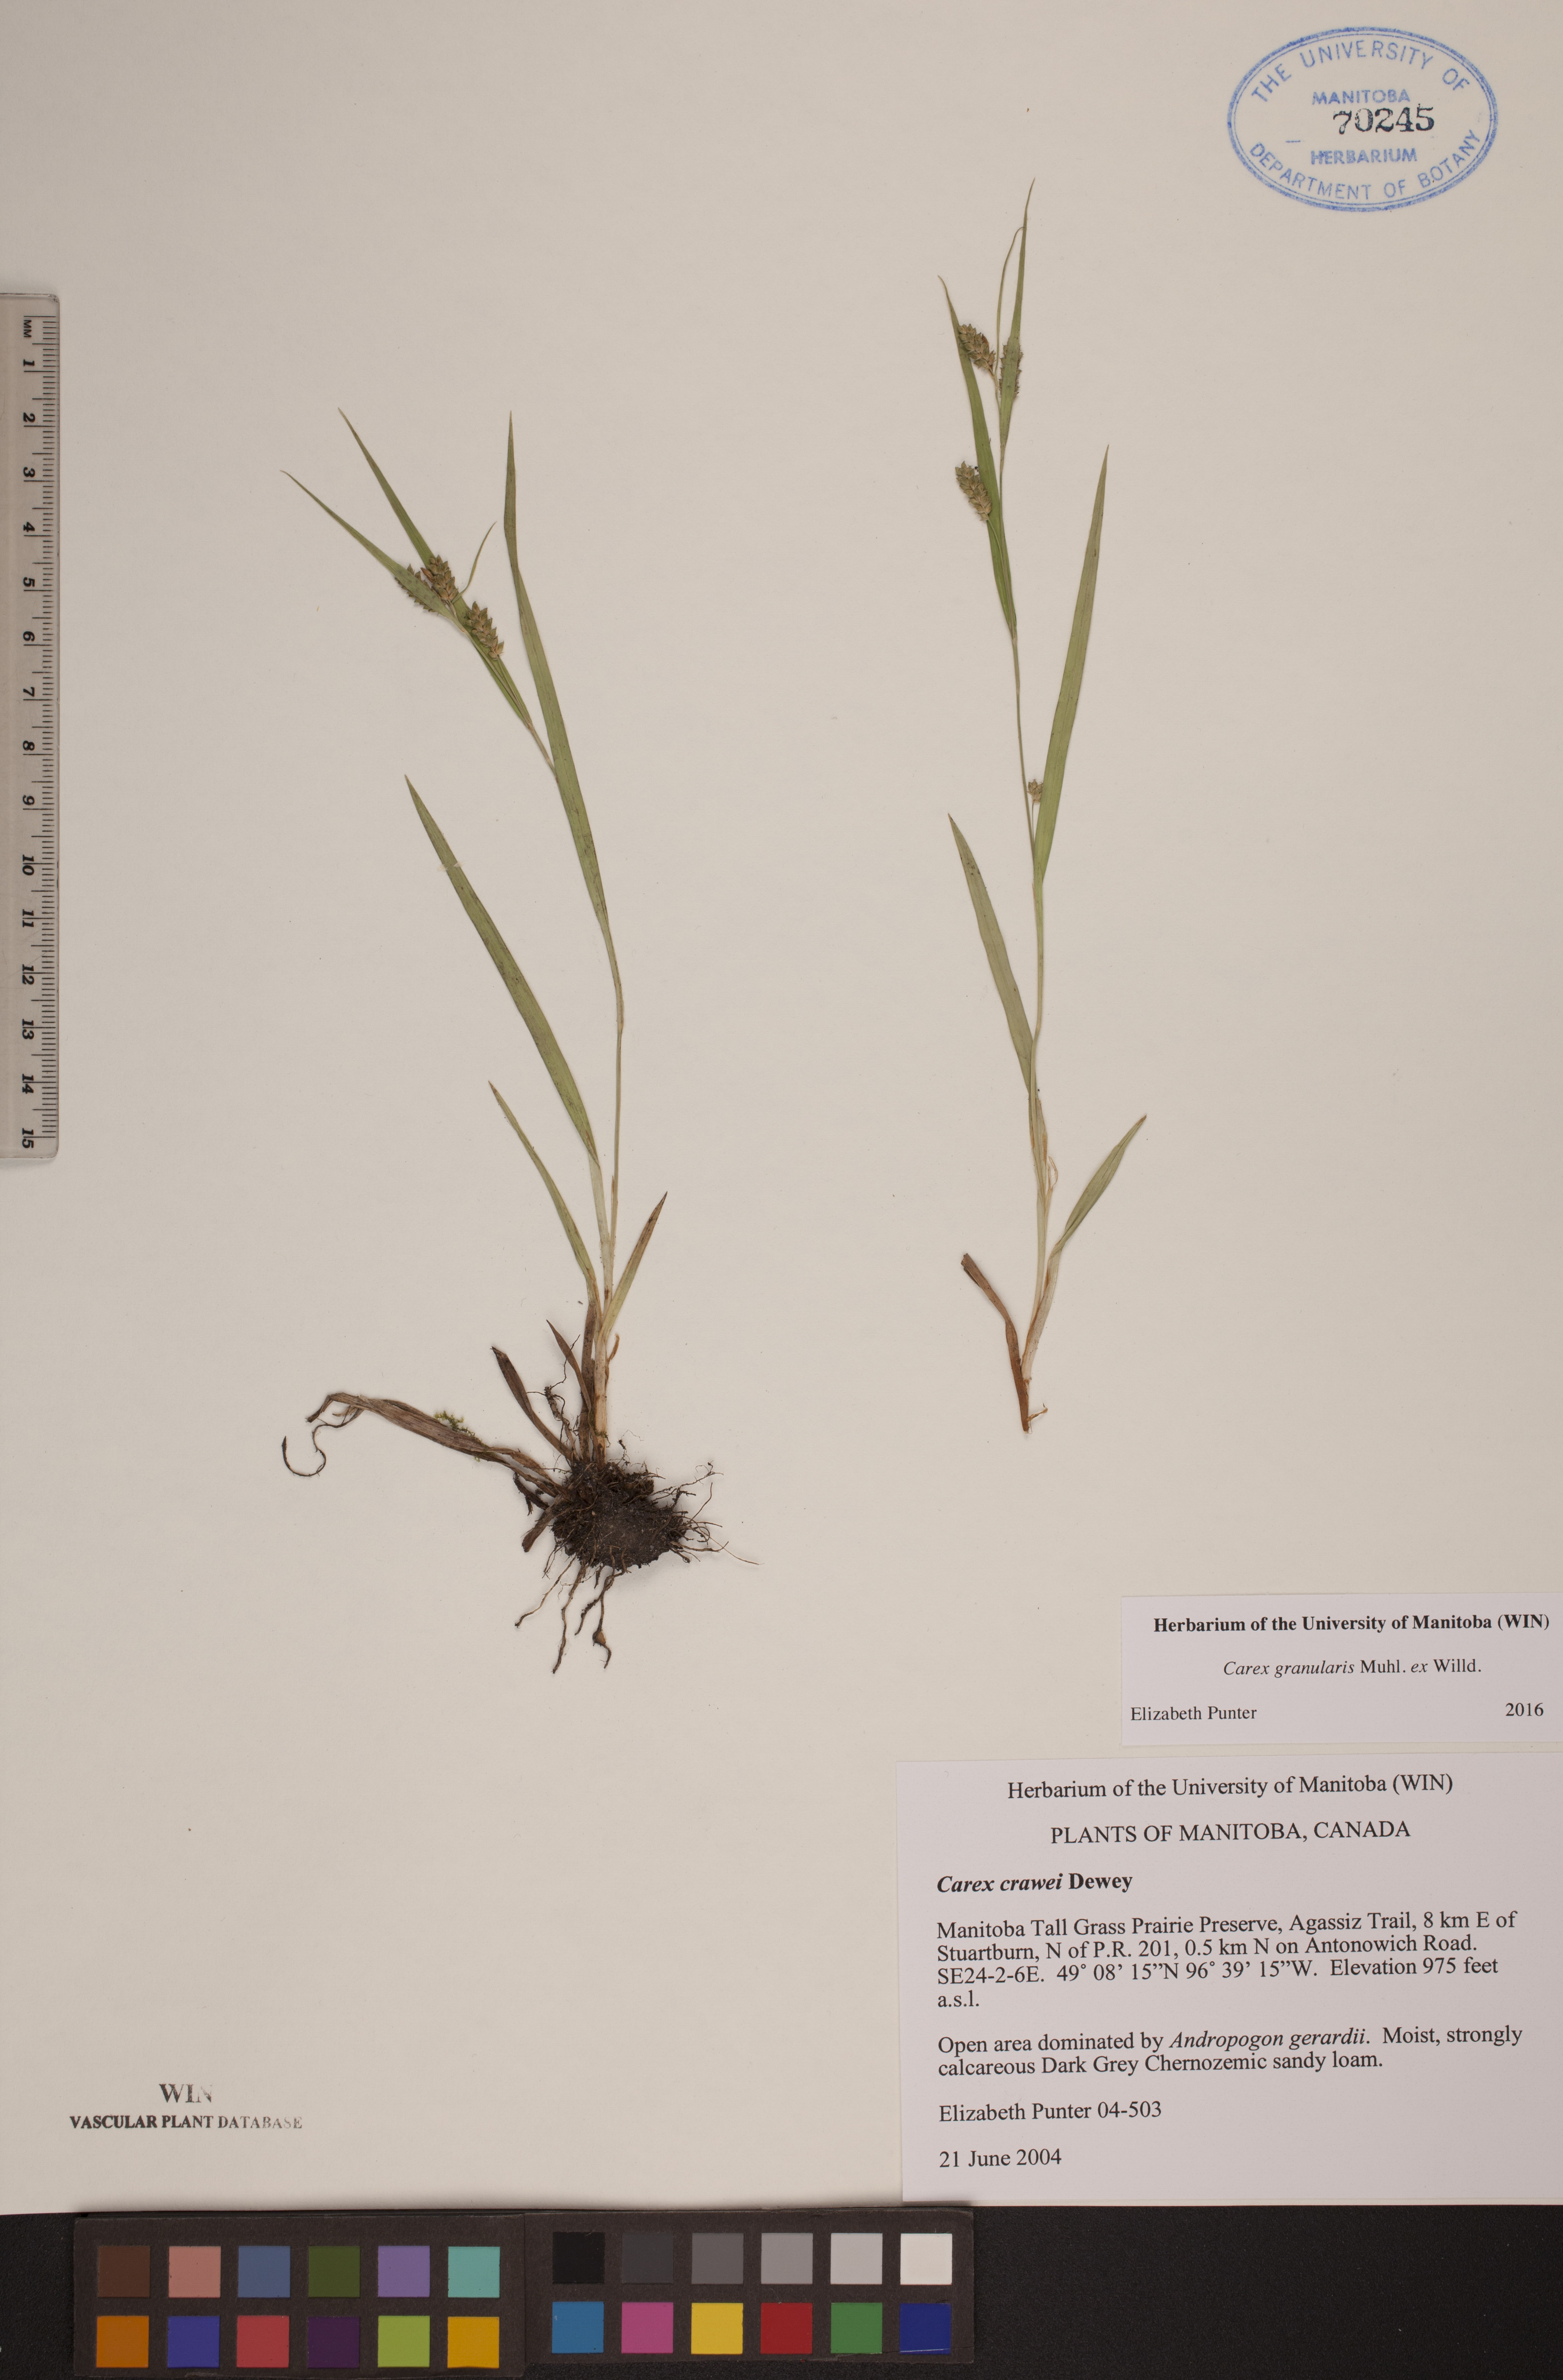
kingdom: Plantae
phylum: Tracheophyta
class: Liliopsida
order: Poales
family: Cyperaceae
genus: Carex
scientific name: Carex granularis
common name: Granular sedge
